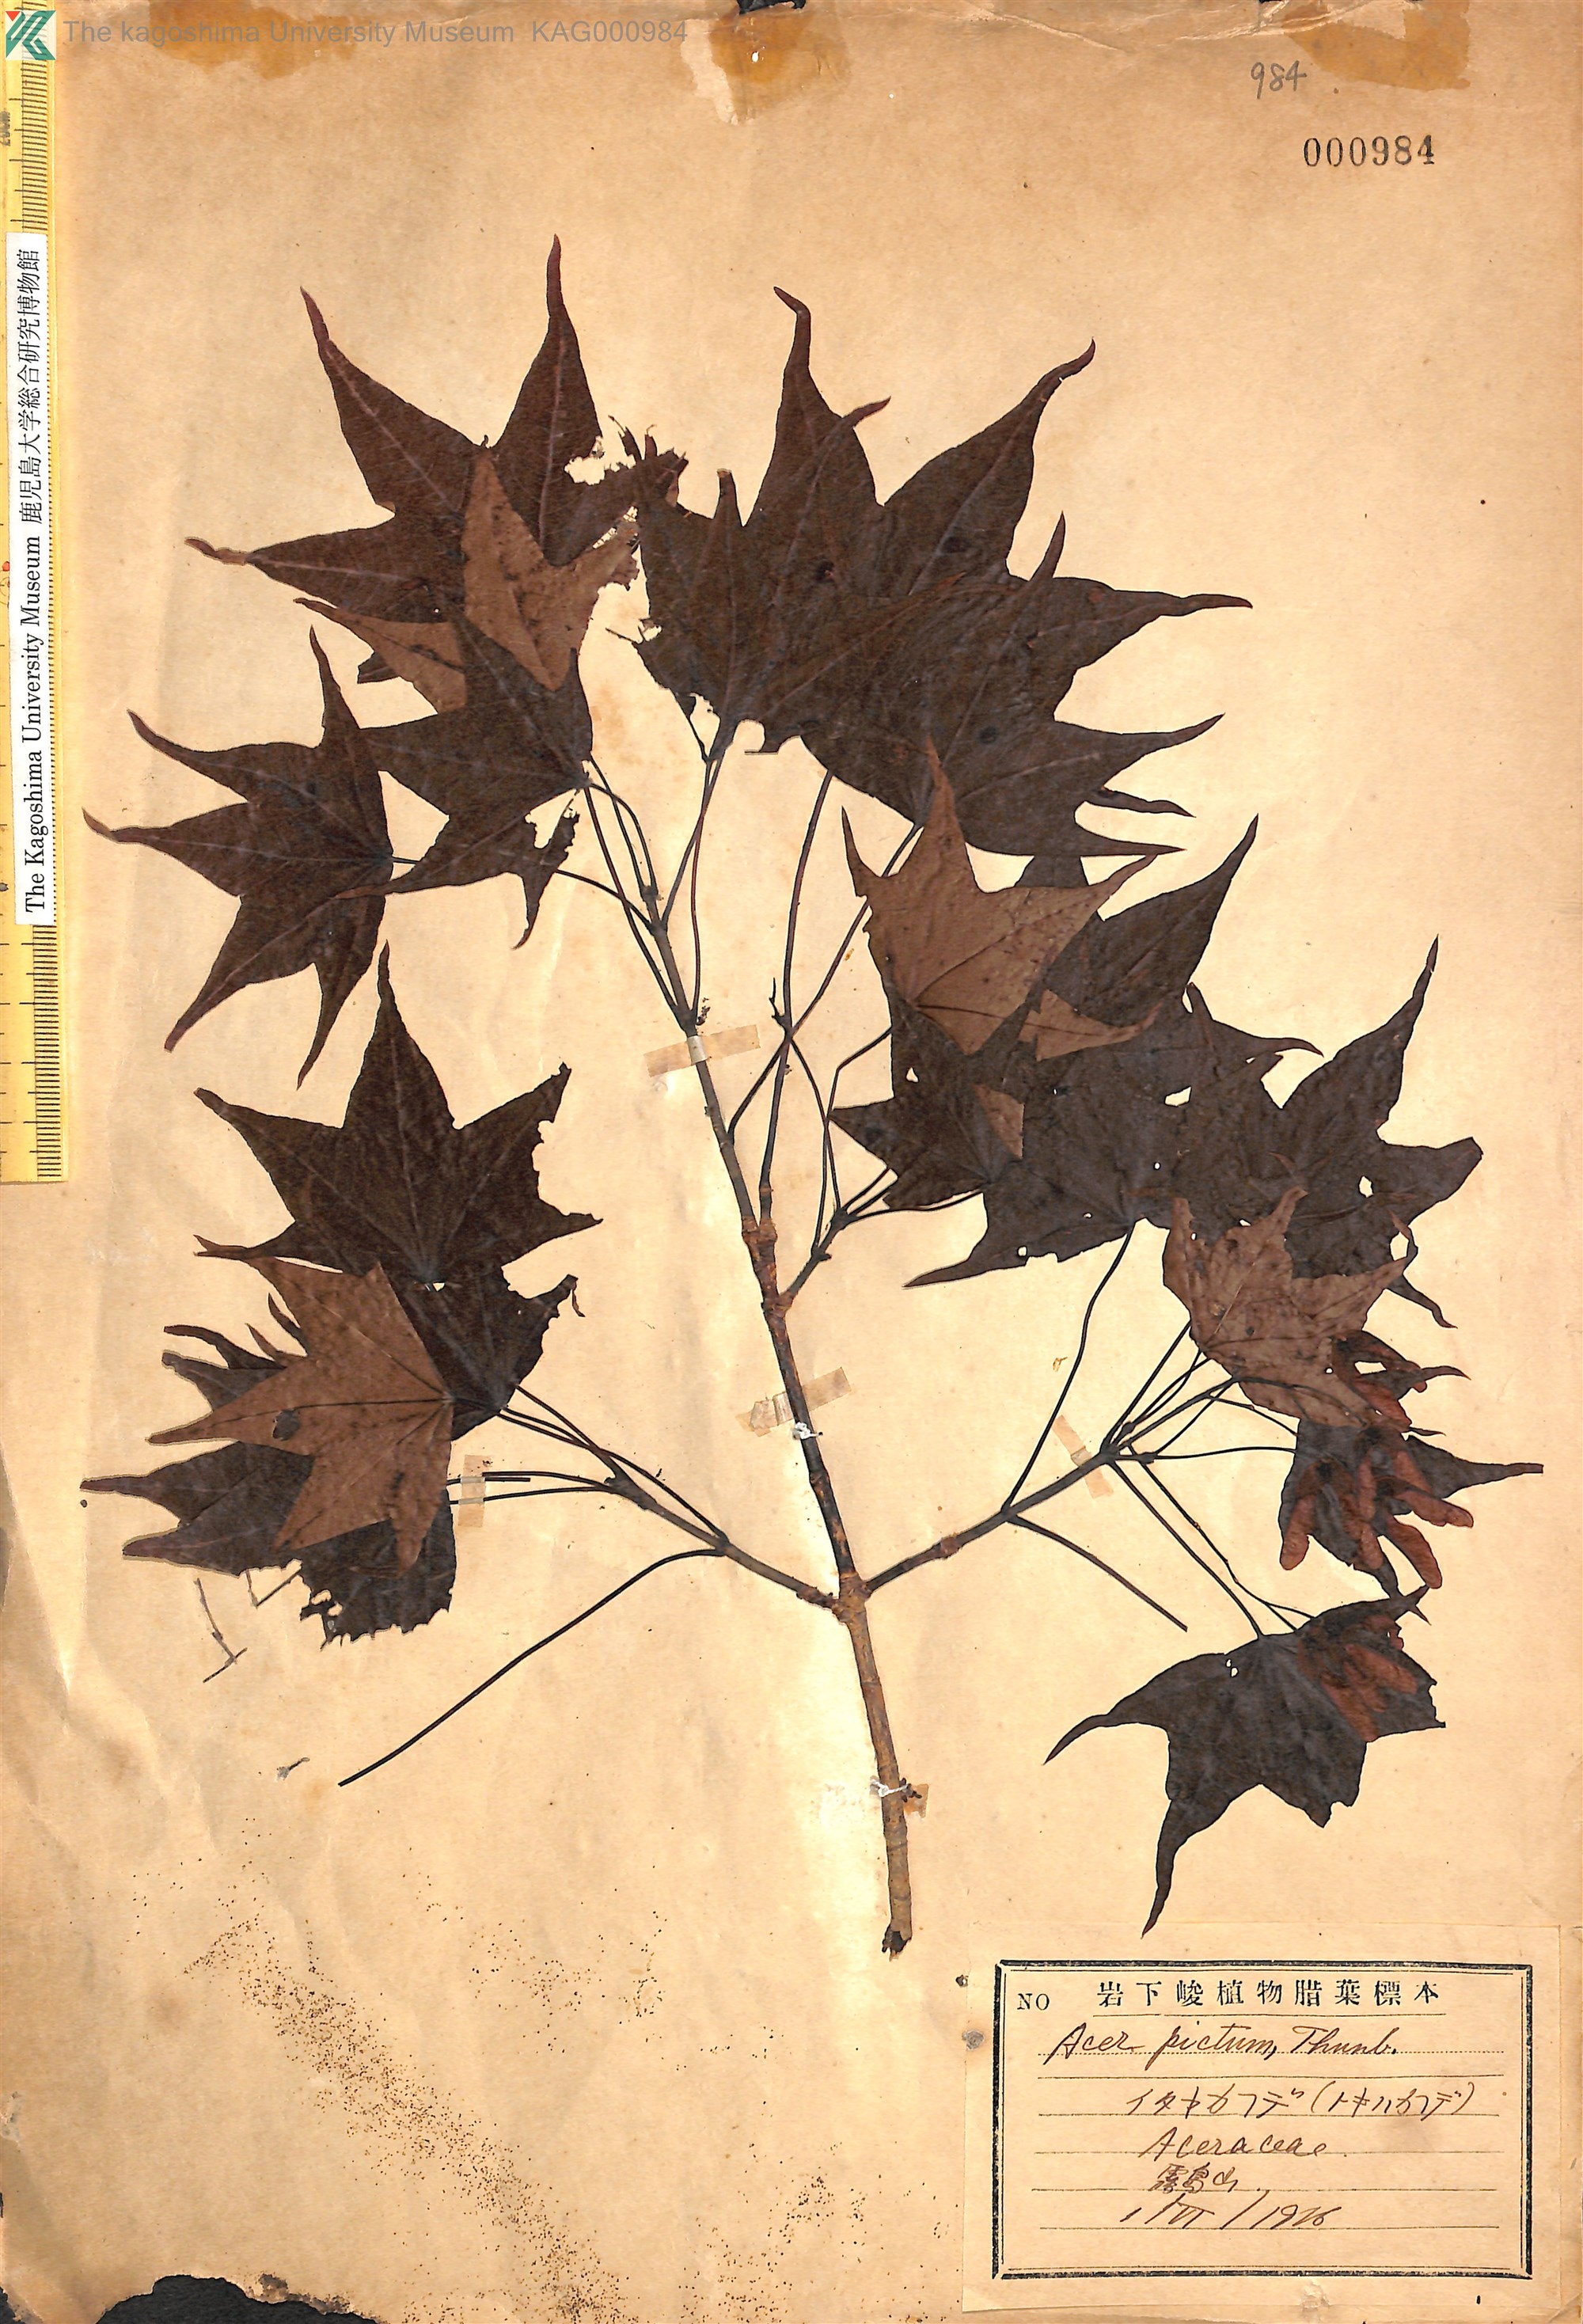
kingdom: Plantae
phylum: Tracheophyta
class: Magnoliopsida
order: Sapindales
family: Sapindaceae
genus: Acer
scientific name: Acer pictum
